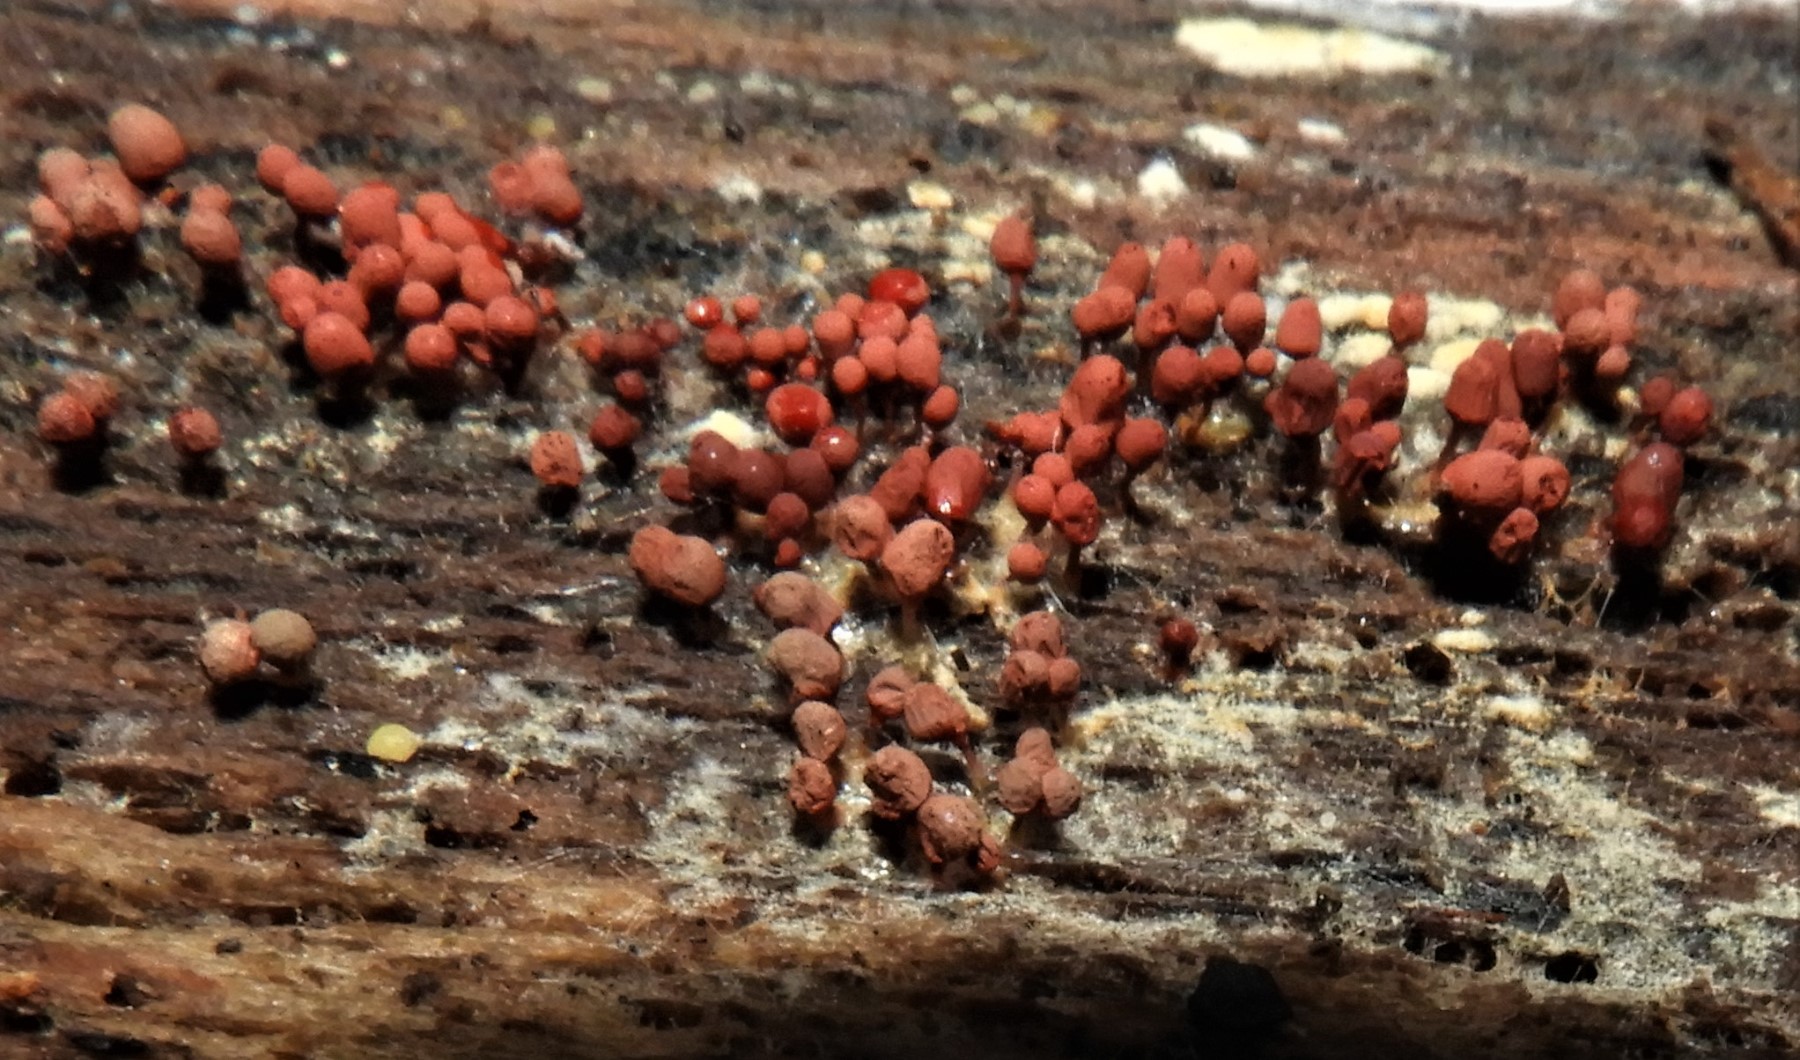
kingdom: Protozoa
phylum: Amoebozoa
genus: Arcyria
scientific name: Arcyria
